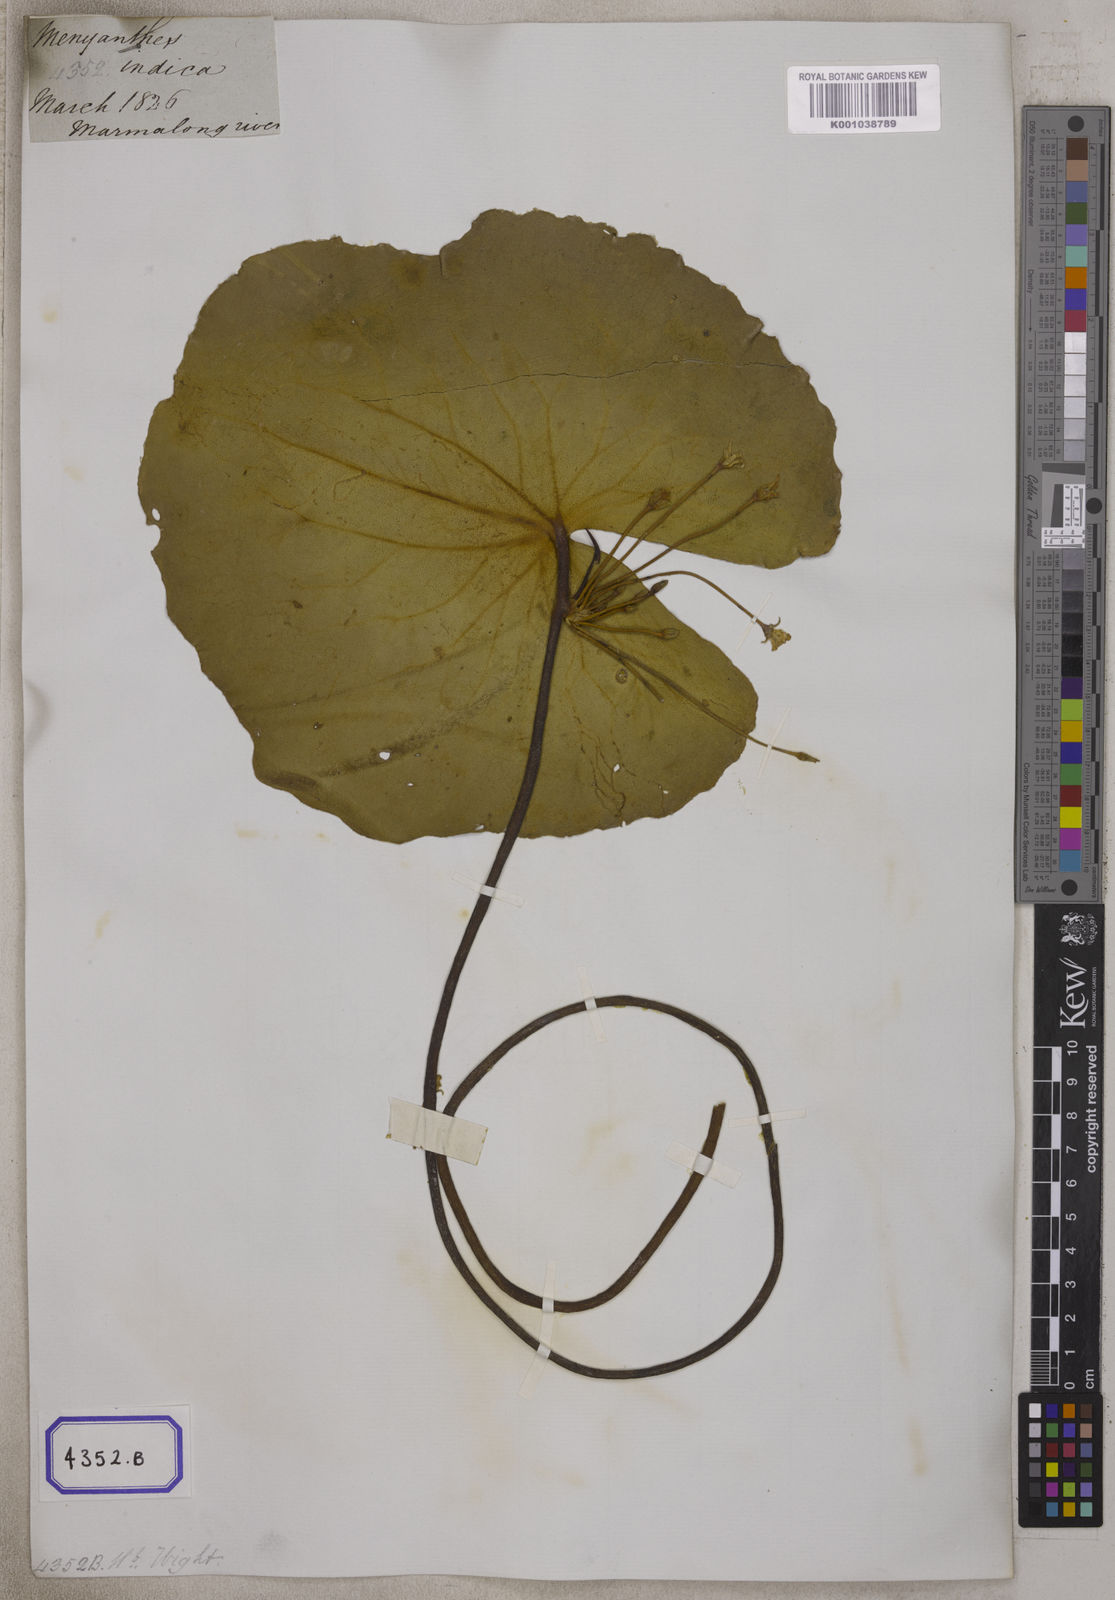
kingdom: Plantae
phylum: Tracheophyta
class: Magnoliopsida
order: Asterales
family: Menyanthaceae
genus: Villarsia
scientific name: Villarsia
